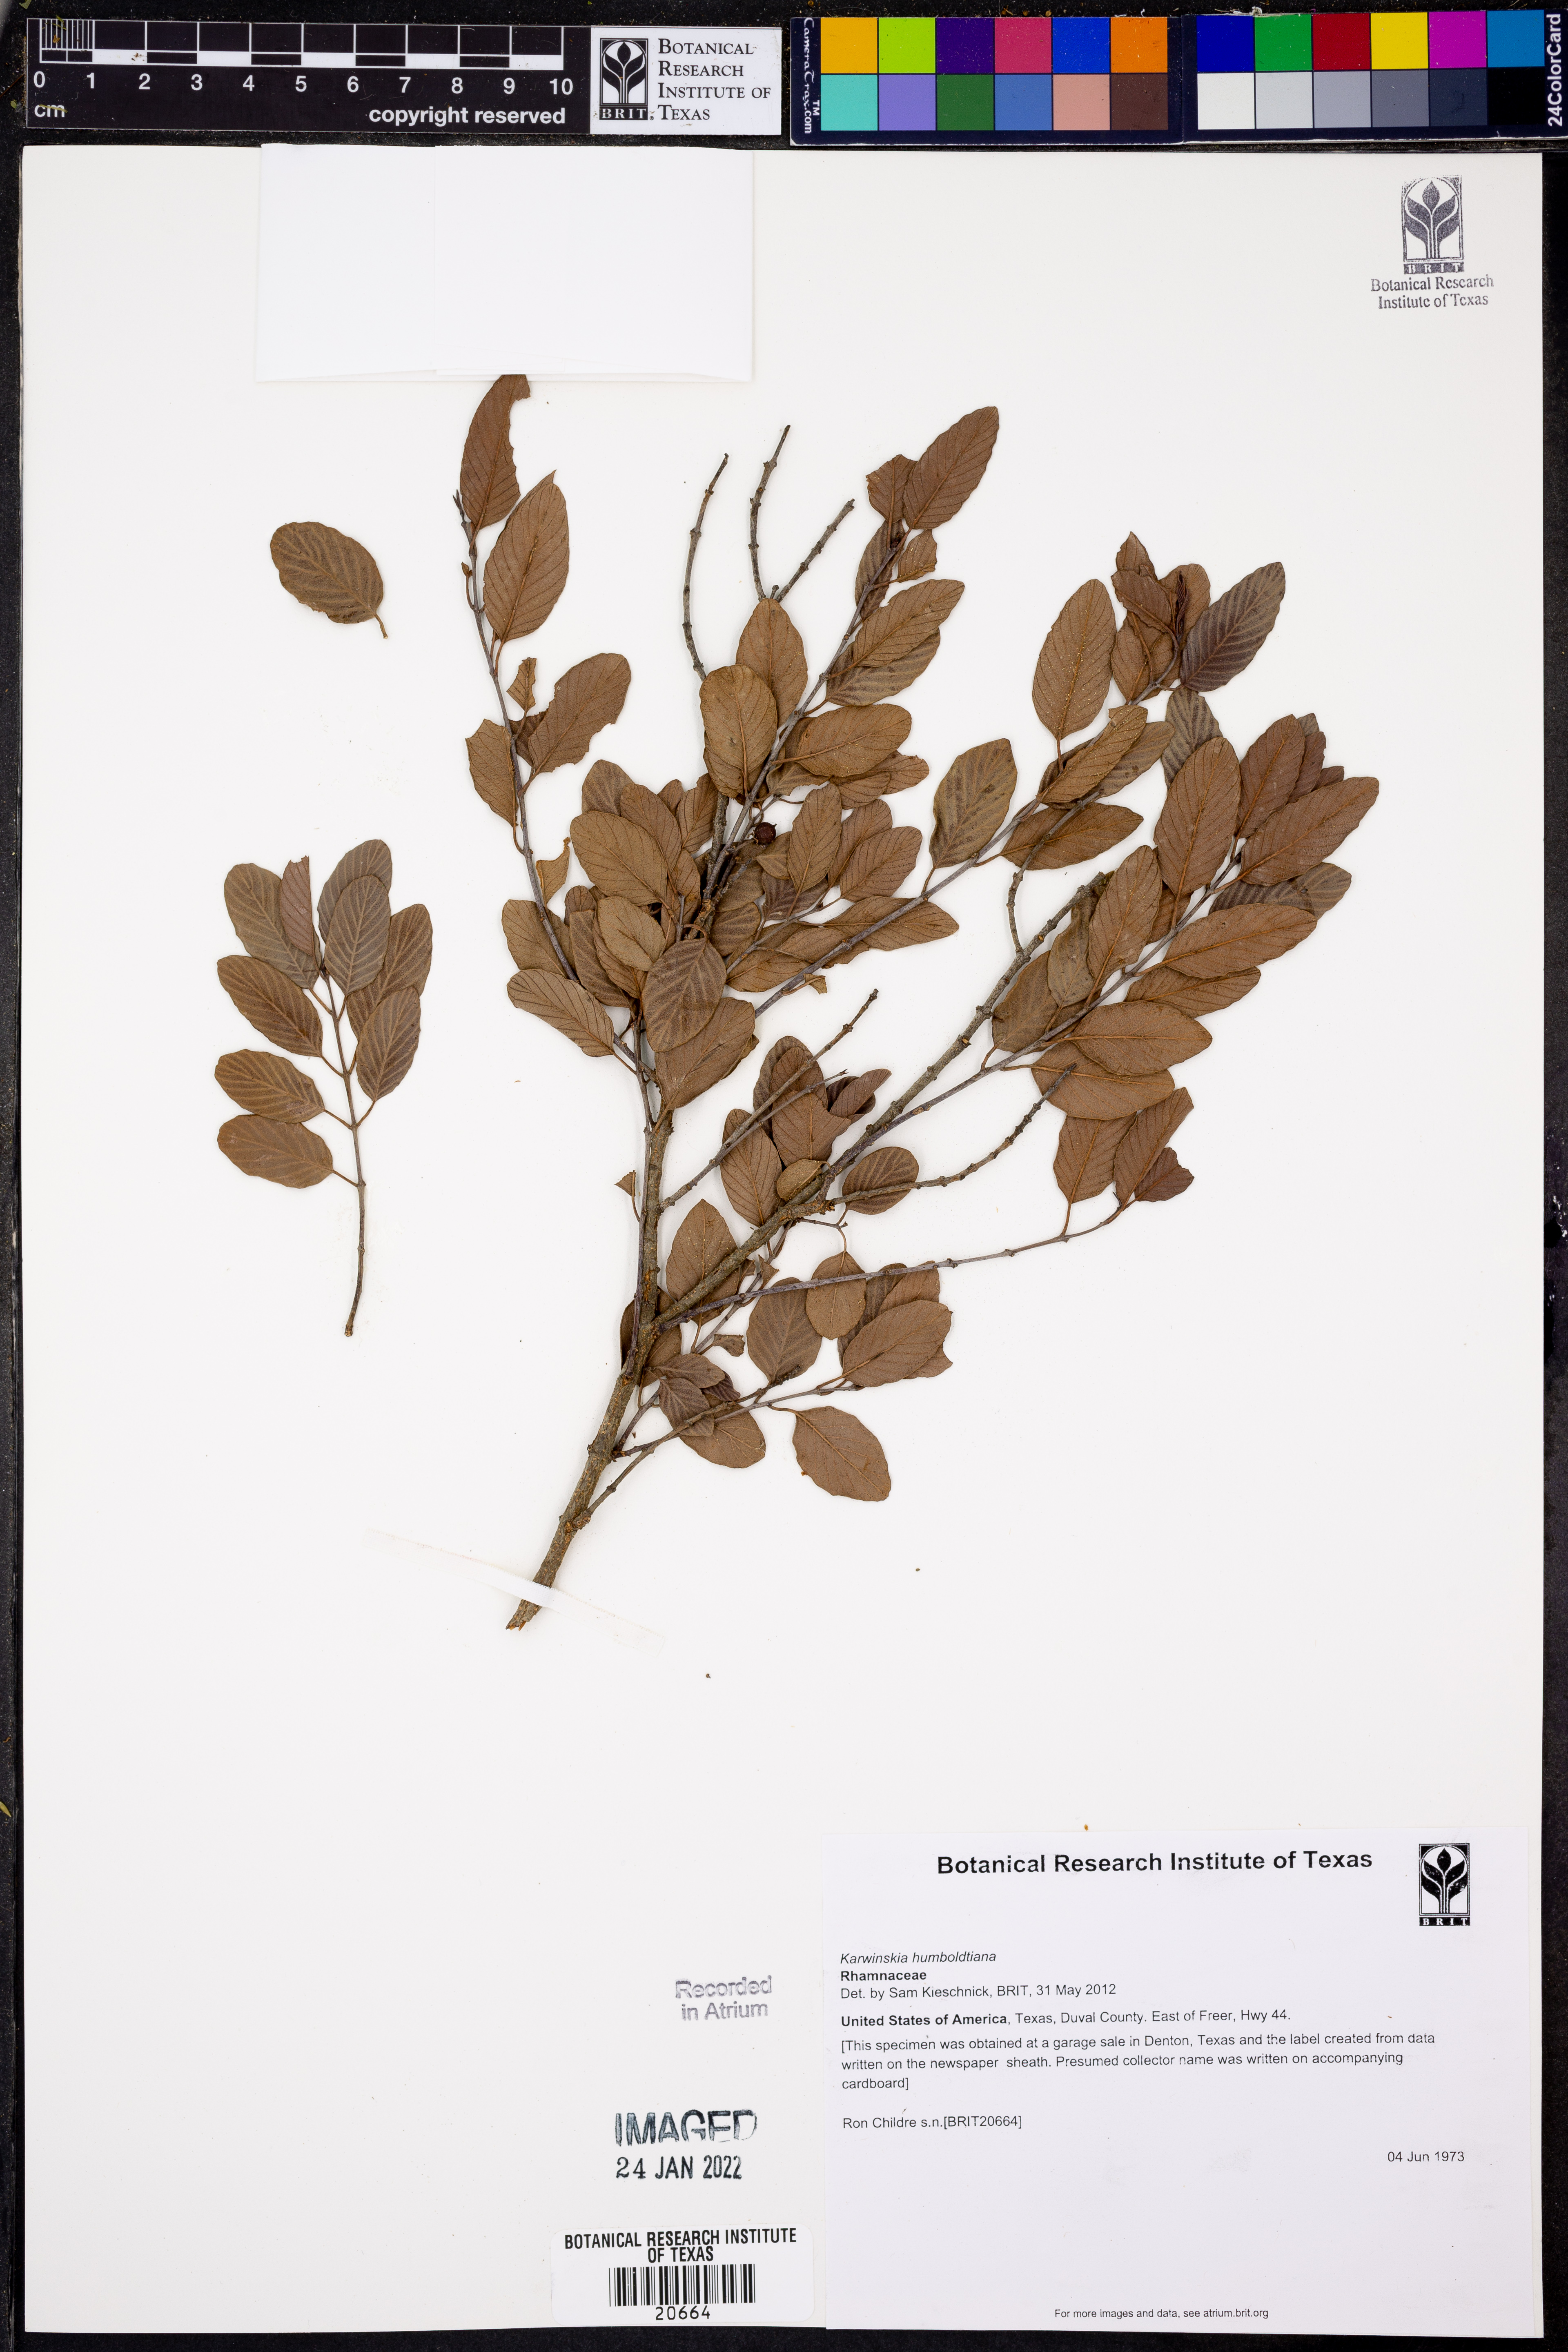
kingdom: Plantae
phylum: Tracheophyta
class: Magnoliopsida
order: Rosales
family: Rhamnaceae
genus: Karwinskia
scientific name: Karwinskia humboldtiana
